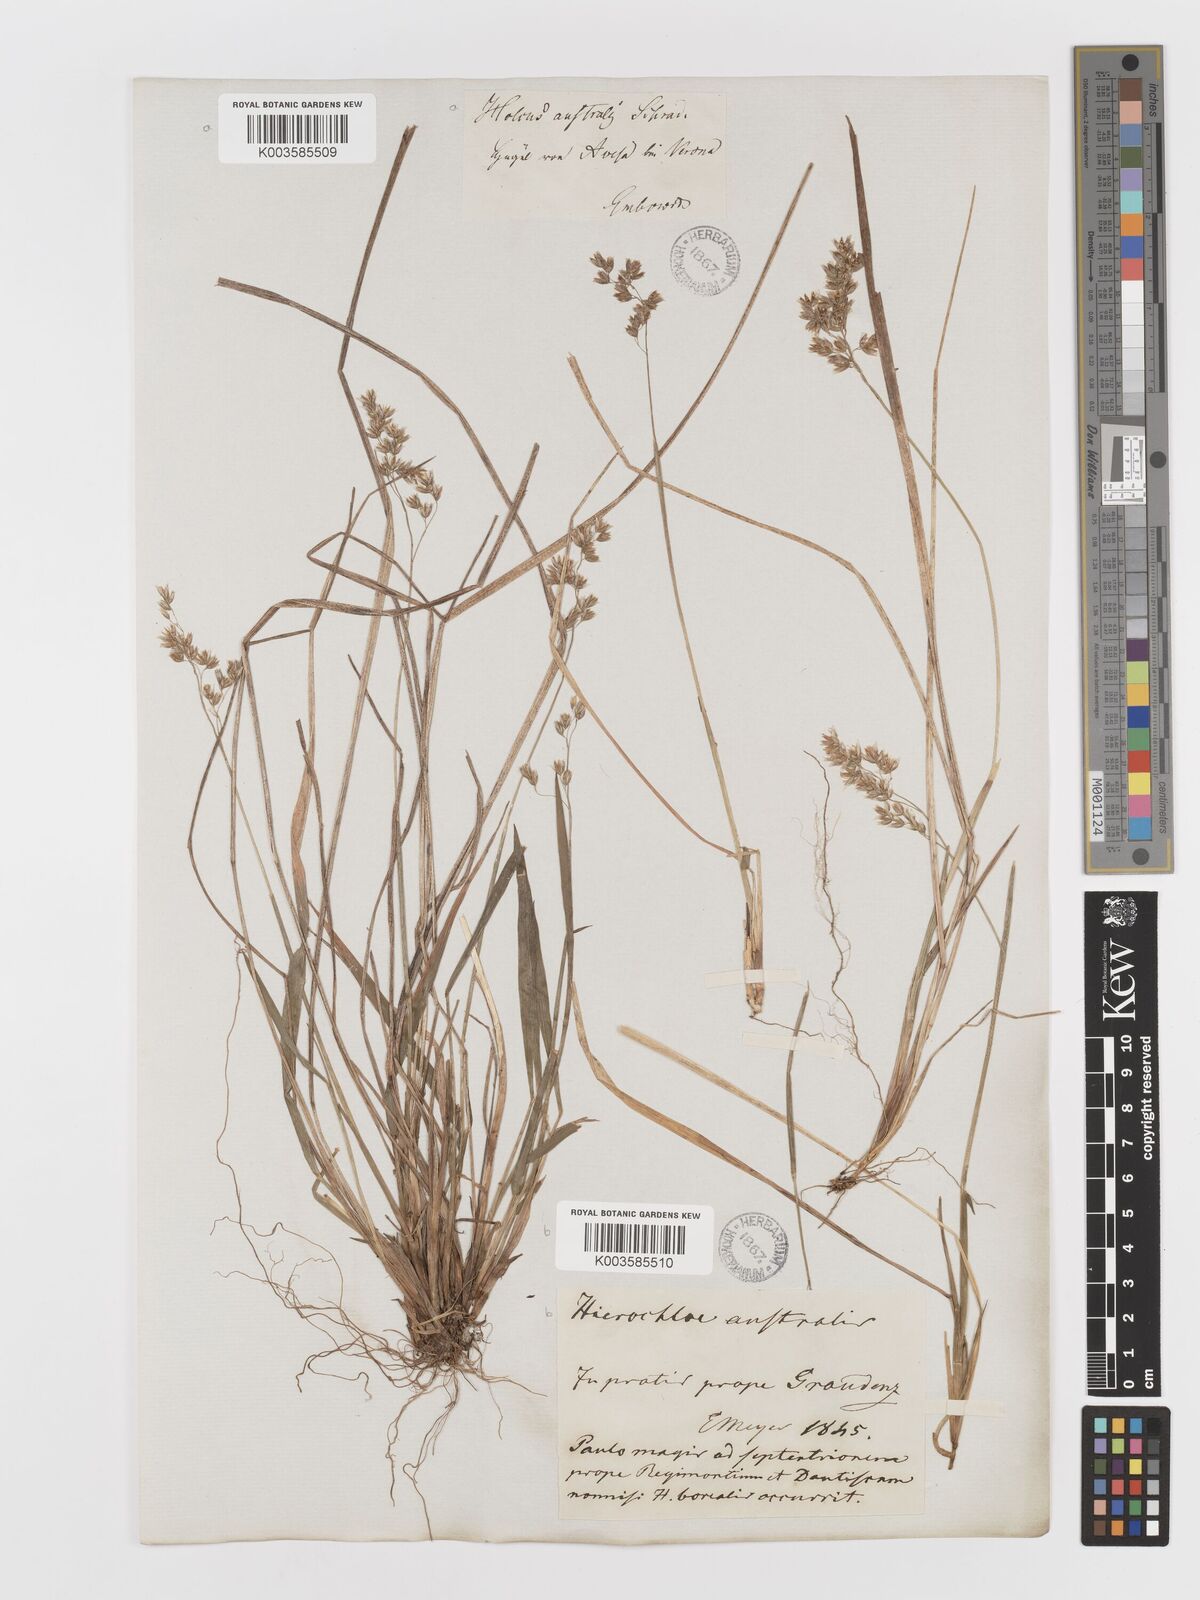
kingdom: Plantae
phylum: Tracheophyta
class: Liliopsida
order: Poales
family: Poaceae
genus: Anthoxanthum
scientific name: Anthoxanthum australe
